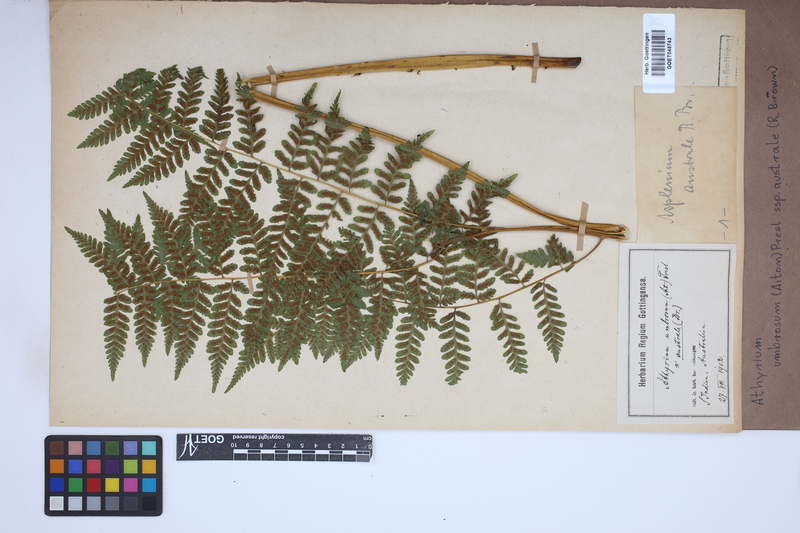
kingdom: Plantae
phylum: Tracheophyta
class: Polypodiopsida
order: Polypodiales
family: Athyriaceae
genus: Diplazium
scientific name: Diplazium australe
